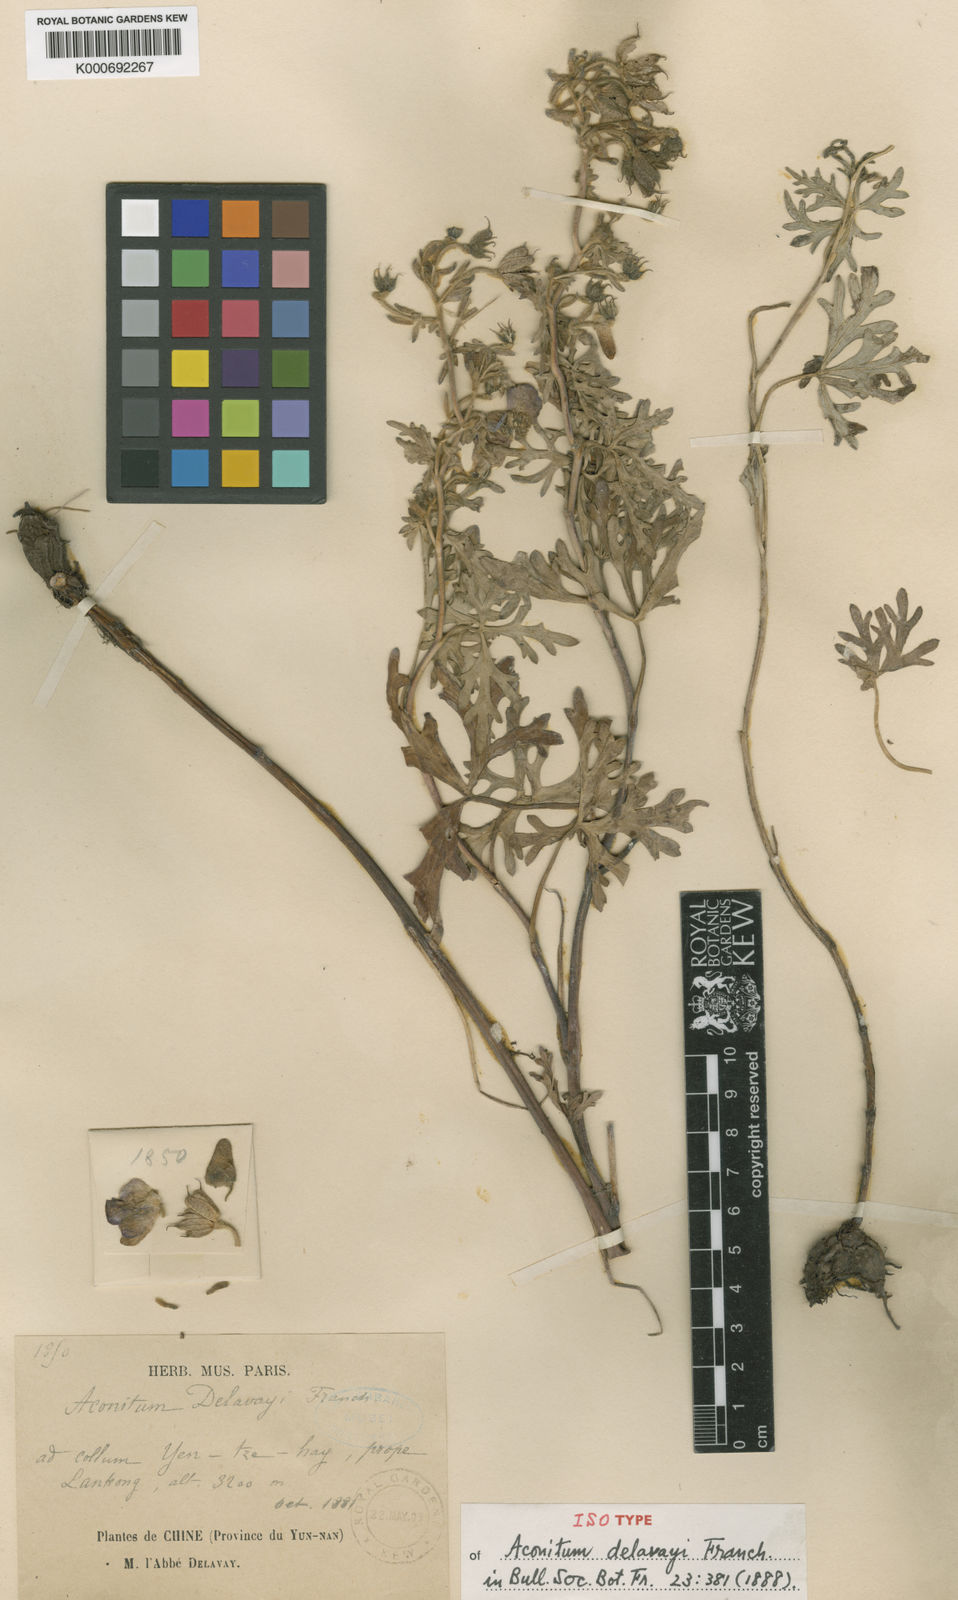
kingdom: Plantae
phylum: Tracheophyta
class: Magnoliopsida
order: Ranunculales
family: Ranunculaceae
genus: Aconitum
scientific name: Aconitum delavayi
